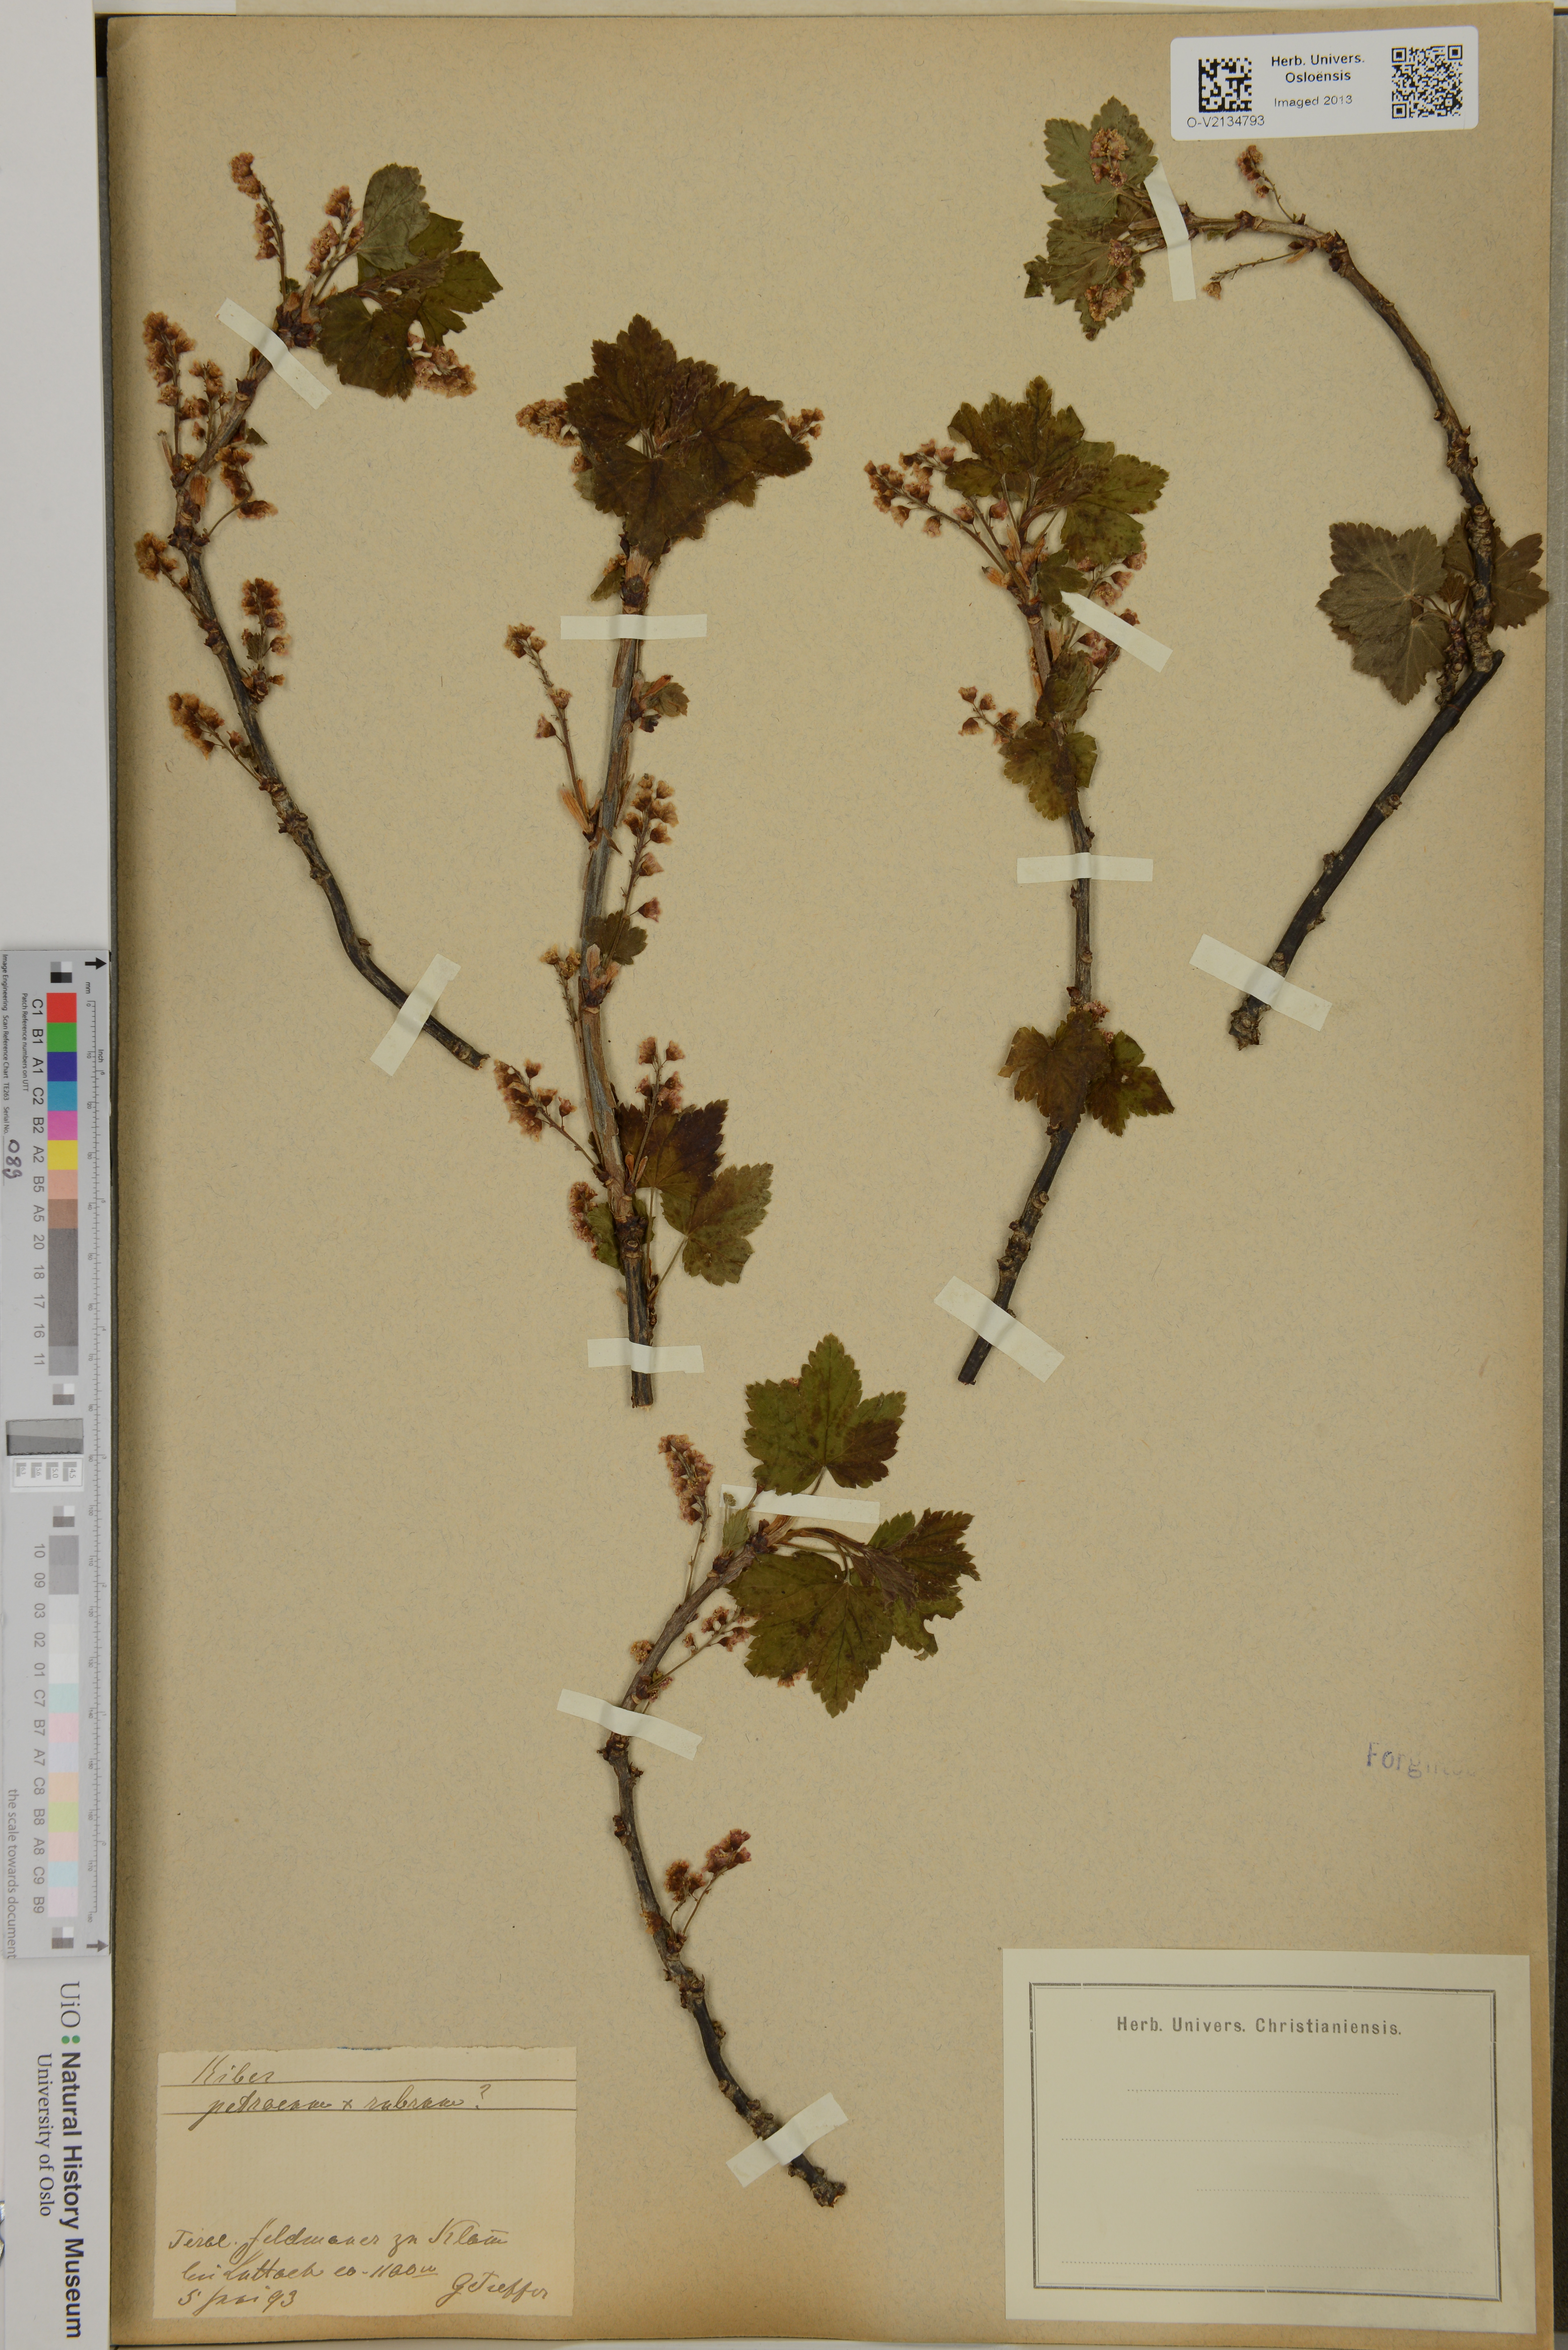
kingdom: Plantae
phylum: Tracheophyta
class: Magnoliopsida
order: Saxifragales
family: Grossulariaceae
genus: Ribes
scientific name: Ribes petraeum
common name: Rock currant
